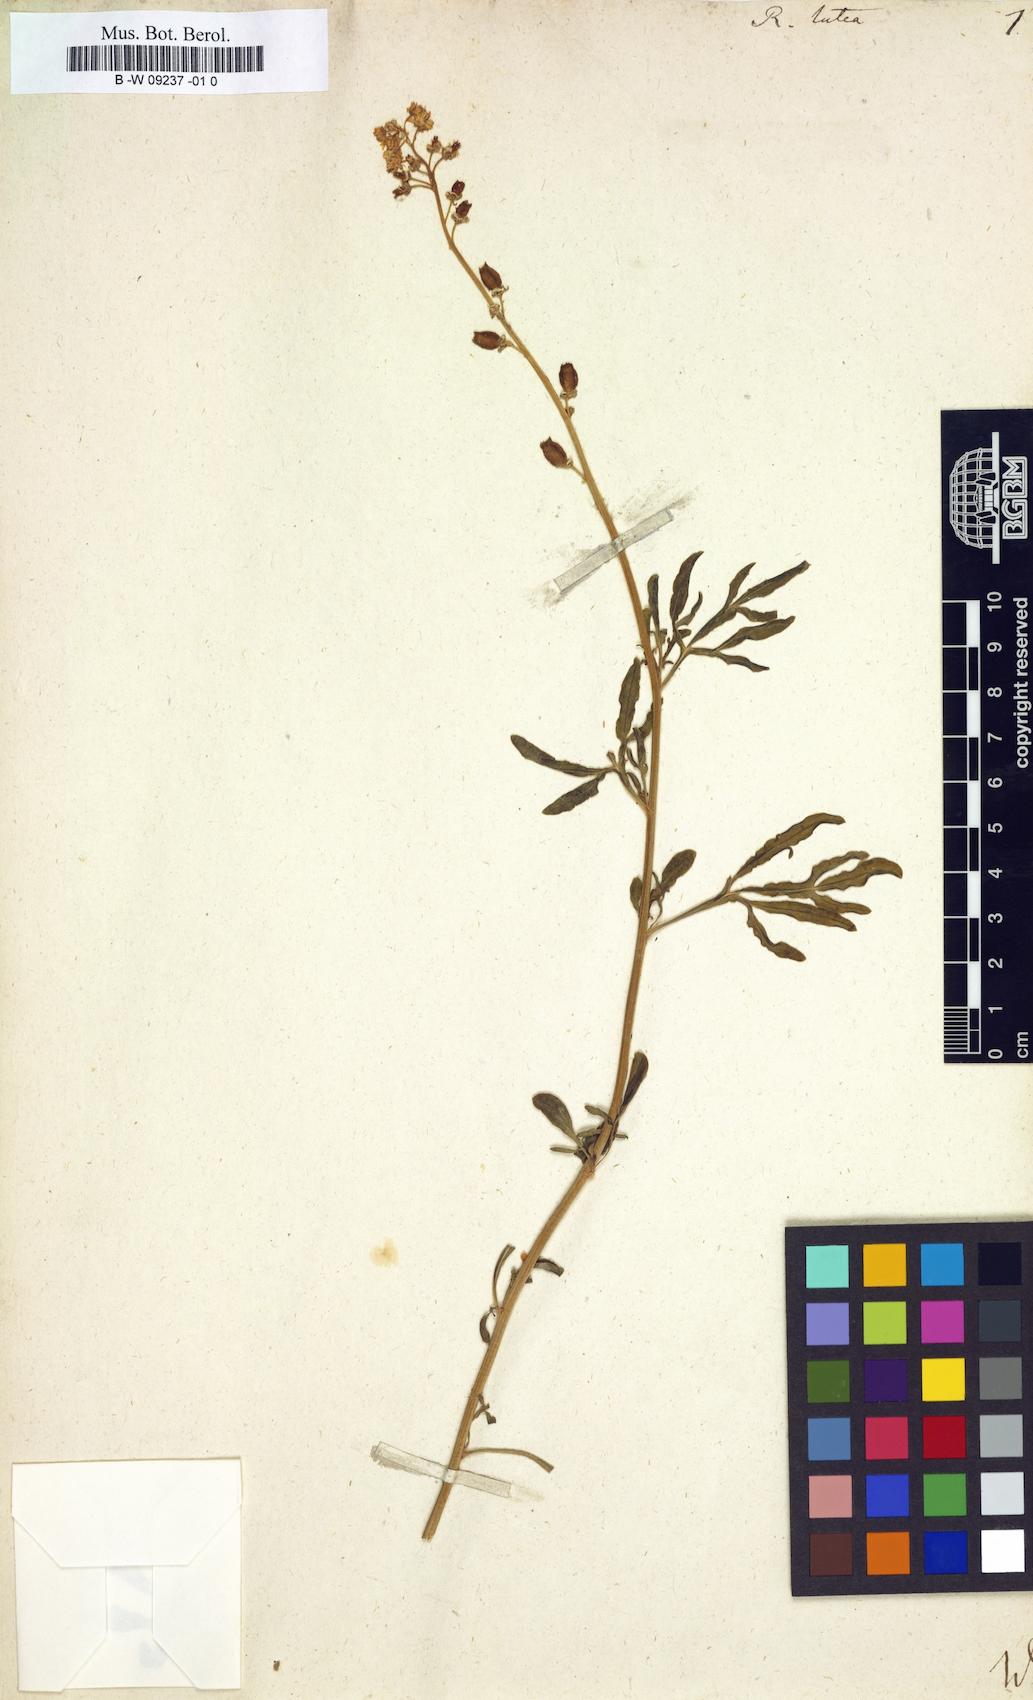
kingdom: Plantae
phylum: Tracheophyta
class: Magnoliopsida
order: Brassicales
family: Resedaceae
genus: Reseda
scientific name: Reseda lutea
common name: Wild mignonette
